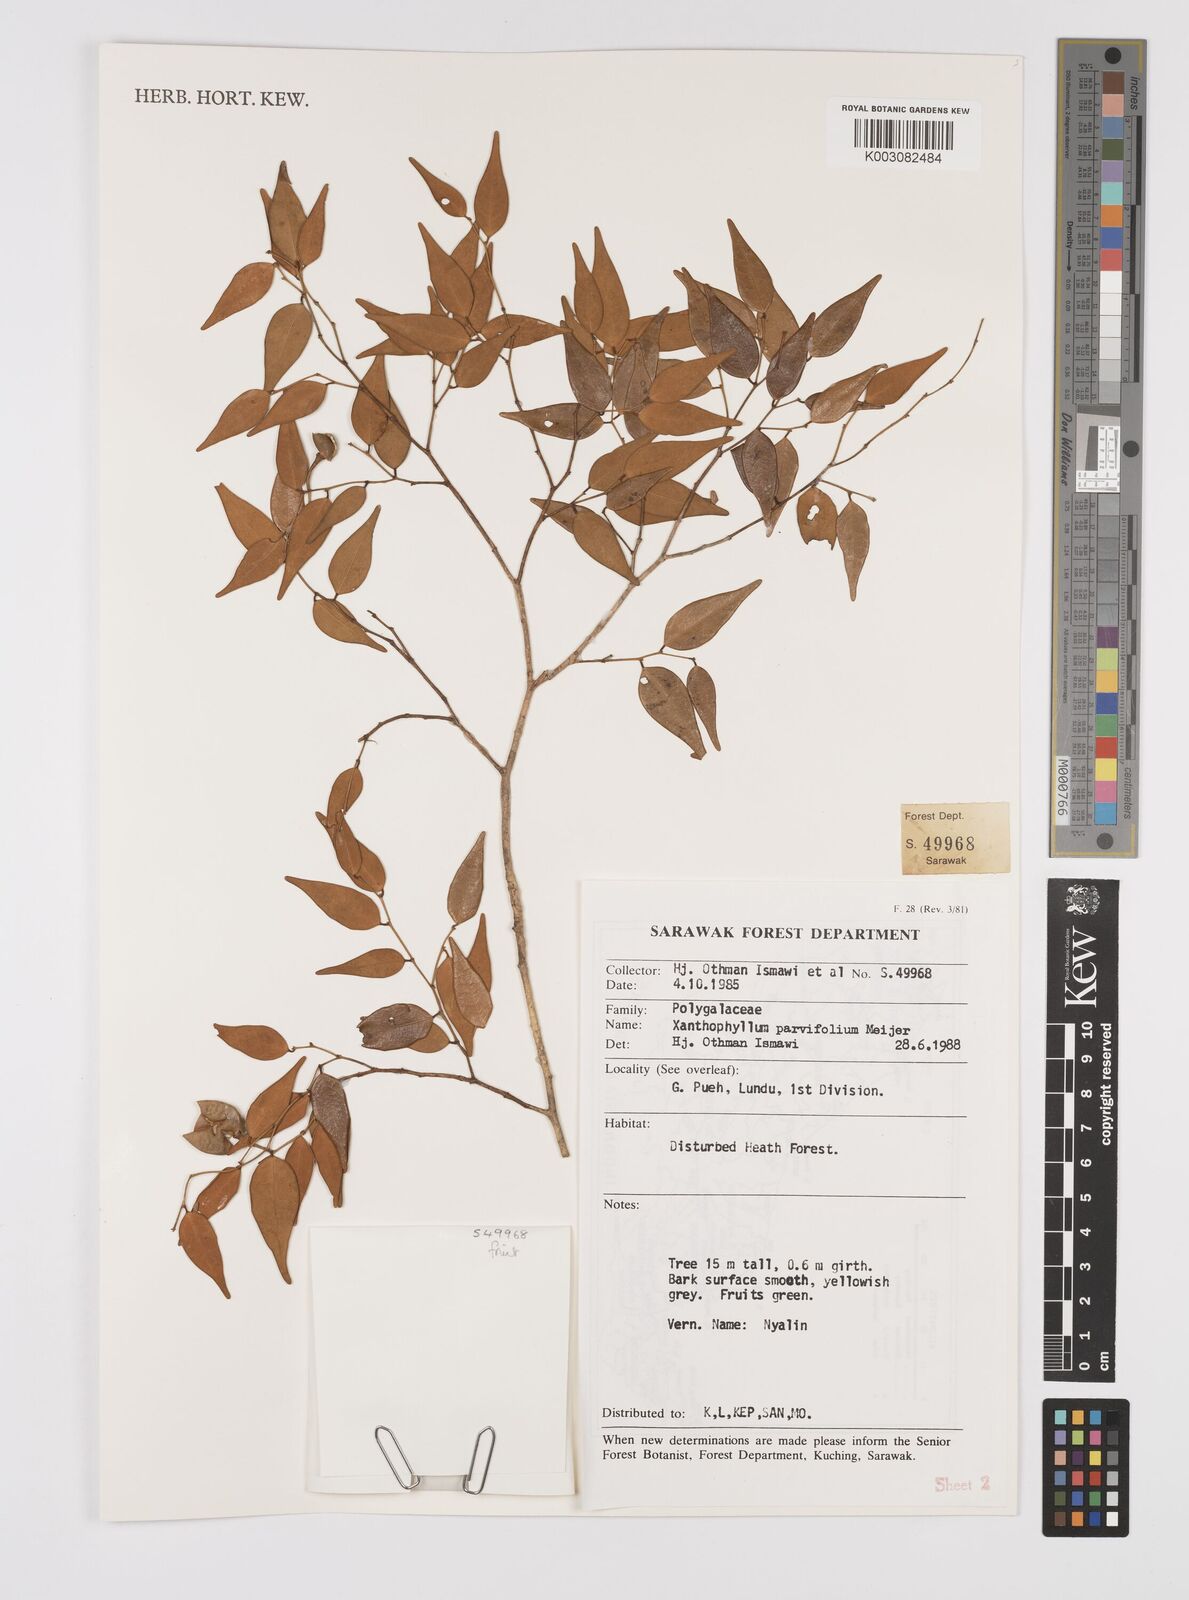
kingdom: Plantae
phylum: Tracheophyta
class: Magnoliopsida
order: Fabales
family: Polygalaceae
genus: Xanthophyllum
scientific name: Xanthophyllum parvifolium
